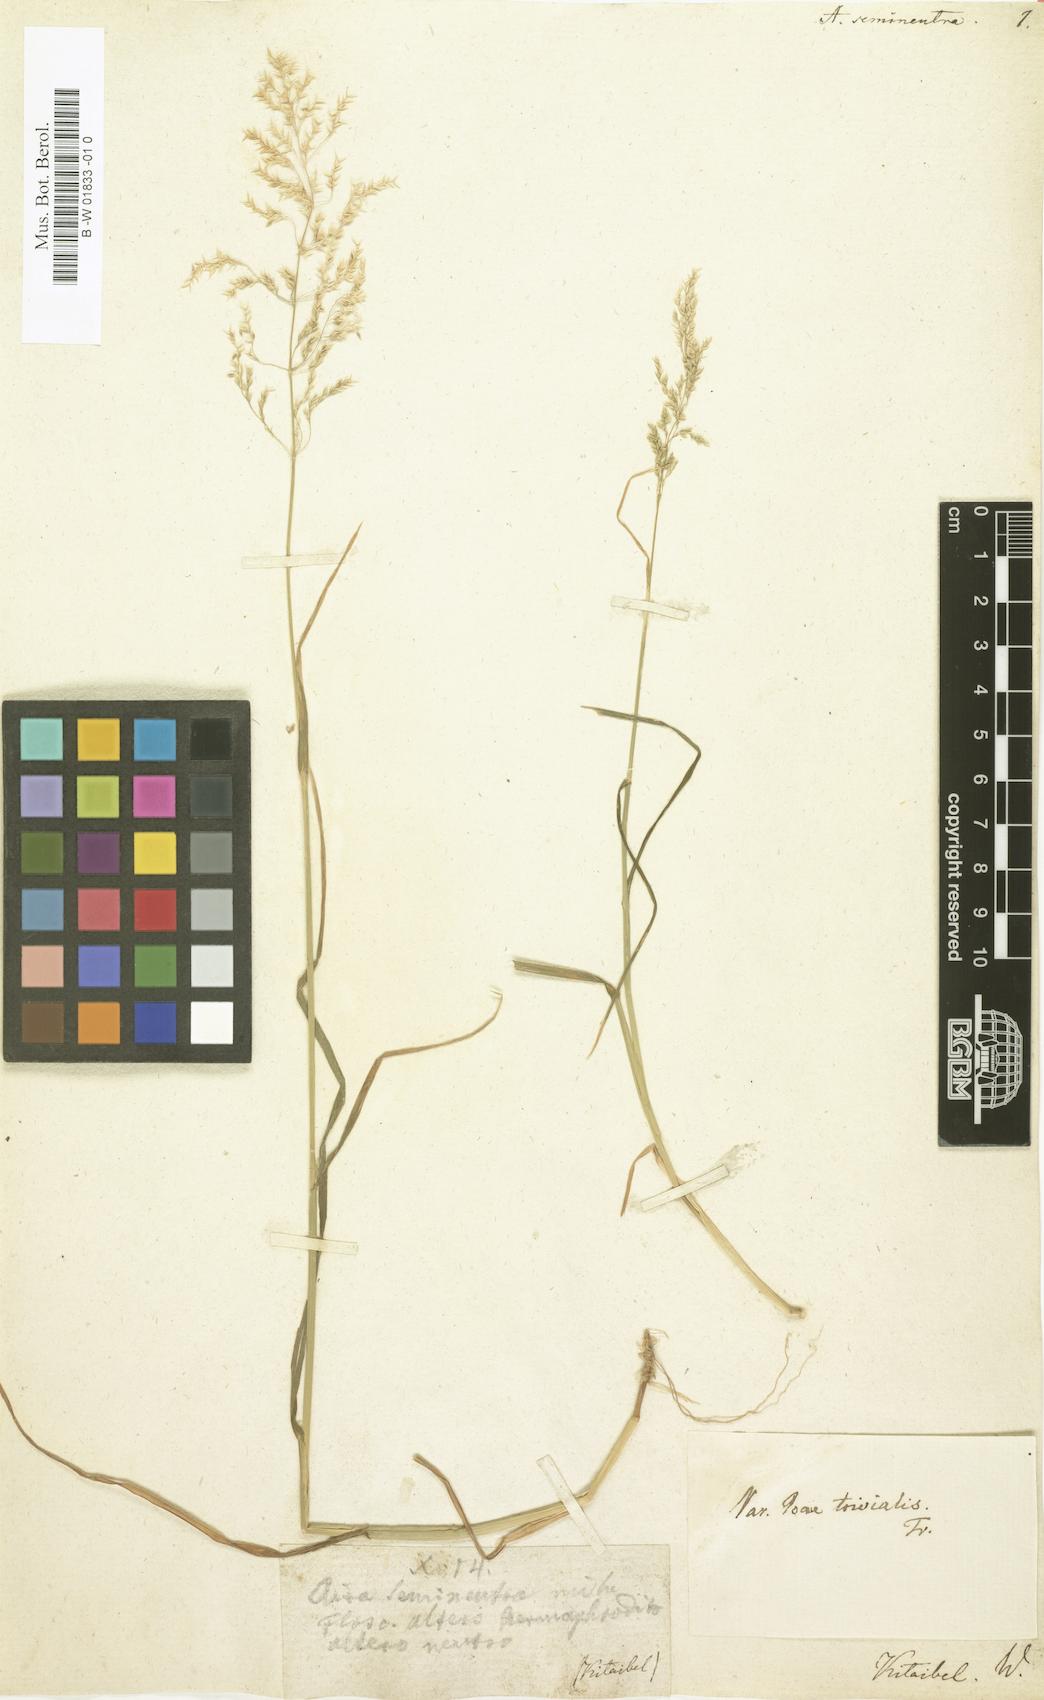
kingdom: Plantae
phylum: Tracheophyta
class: Liliopsida
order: Poales
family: Poaceae
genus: Poa
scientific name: Poa trivialis
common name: Rough bluegrass
